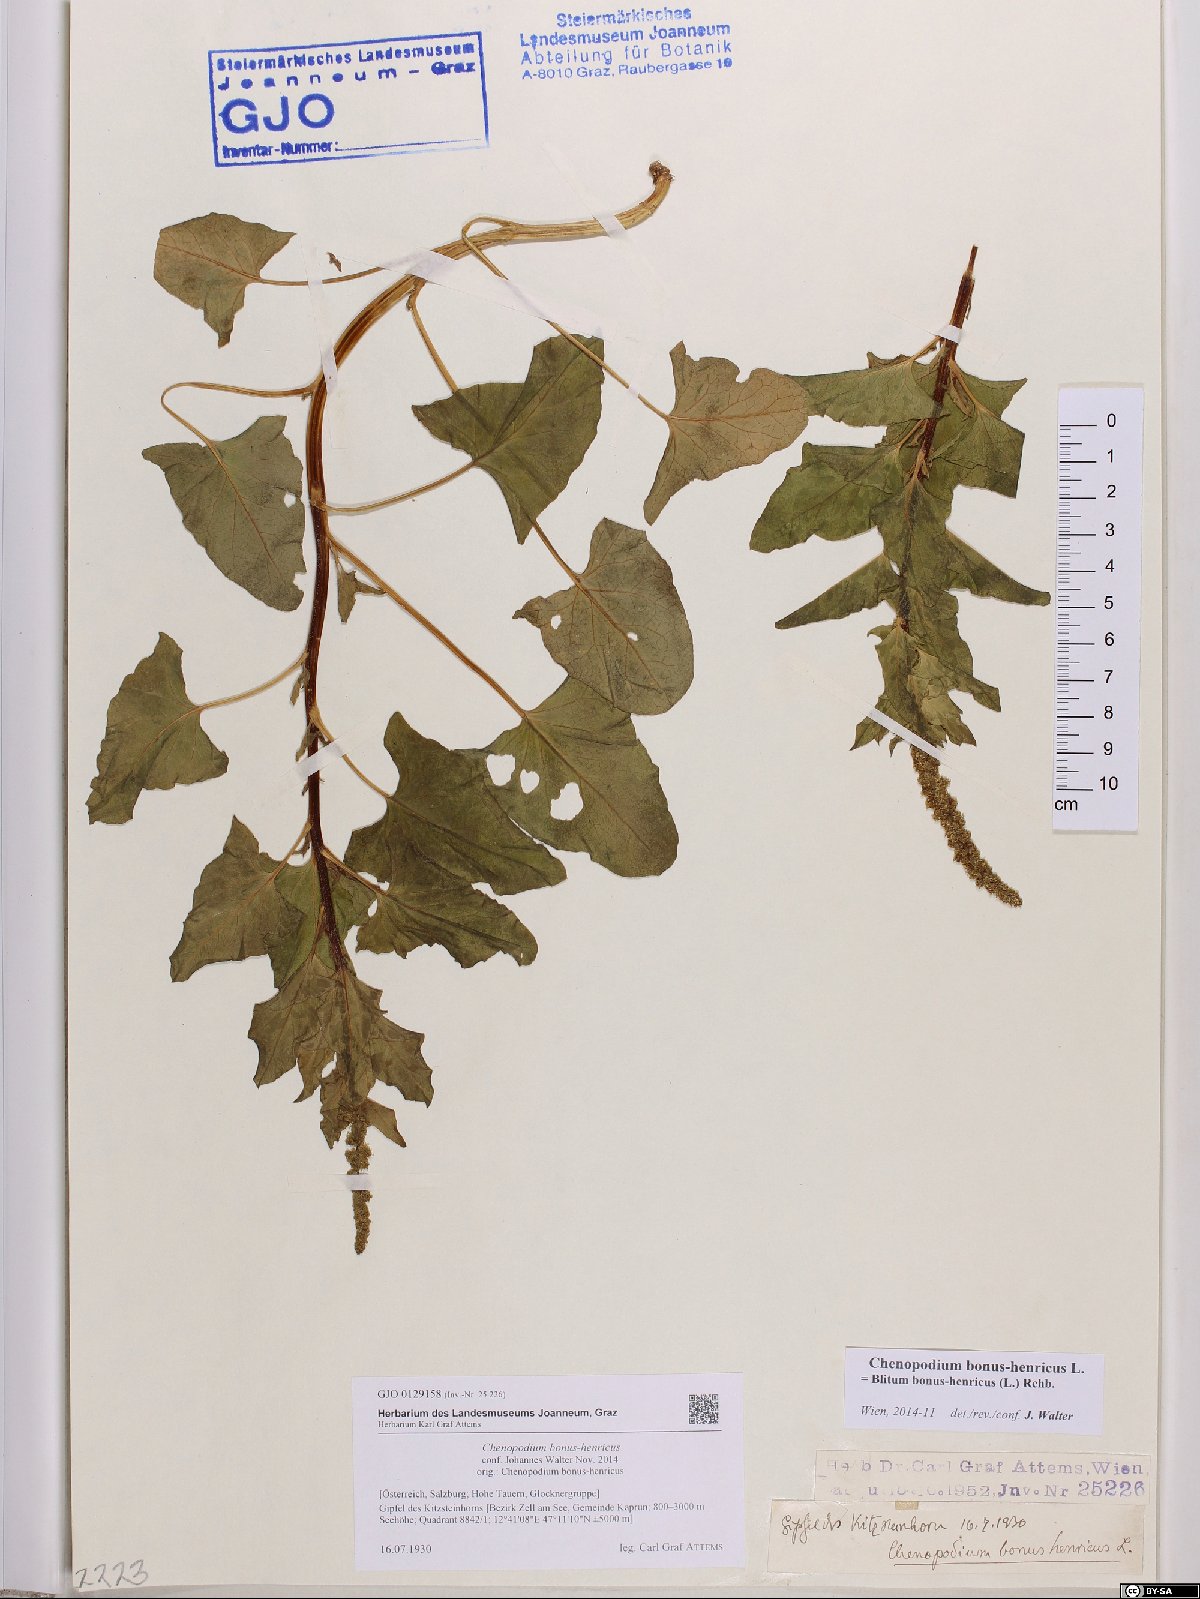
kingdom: Plantae
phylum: Tracheophyta
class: Magnoliopsida
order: Caryophyllales
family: Amaranthaceae
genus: Blitum
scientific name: Blitum bonus-henricus
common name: Good king henry
